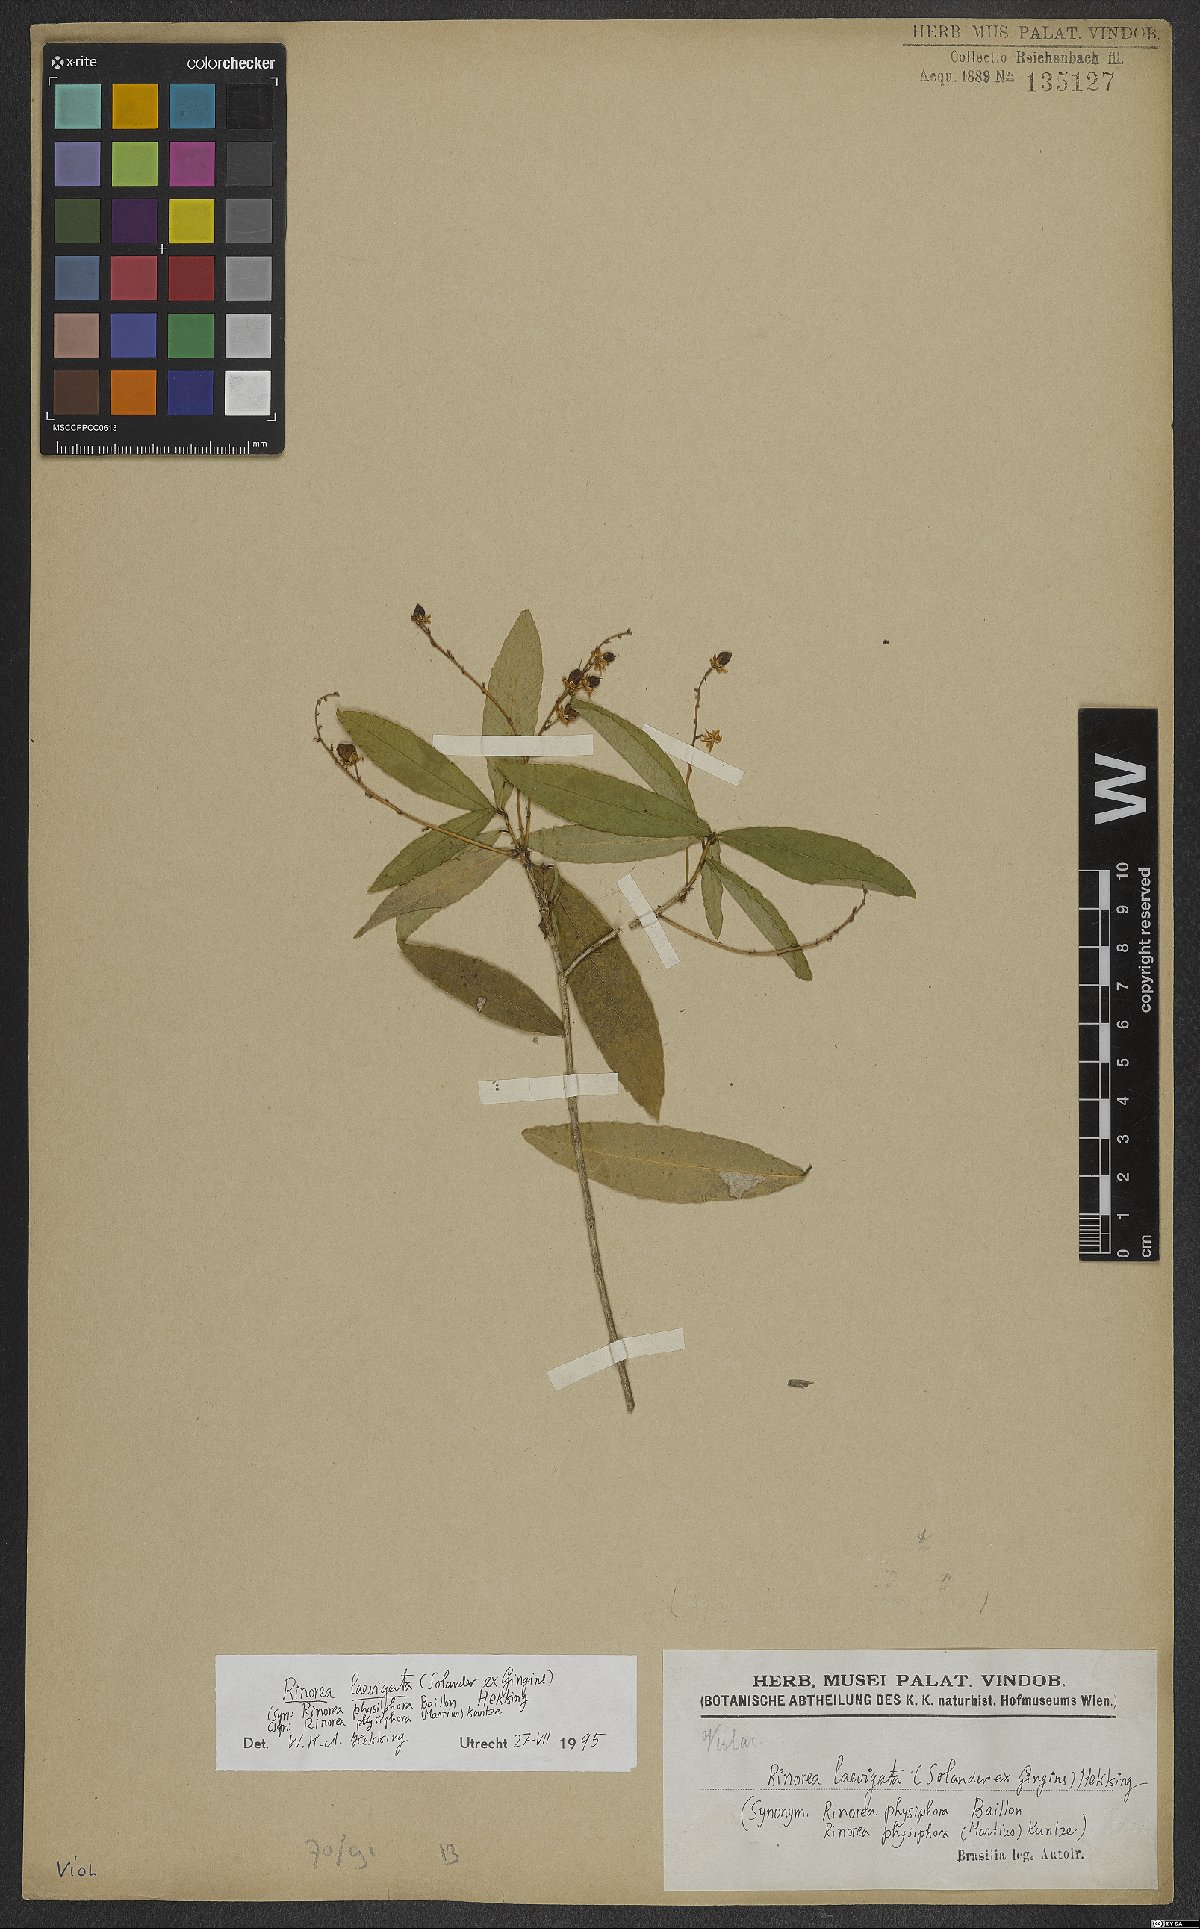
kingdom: Plantae
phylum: Tracheophyta
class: Magnoliopsida
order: Malpighiales
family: Violaceae
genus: Rinorea
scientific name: Rinorea laevigata
